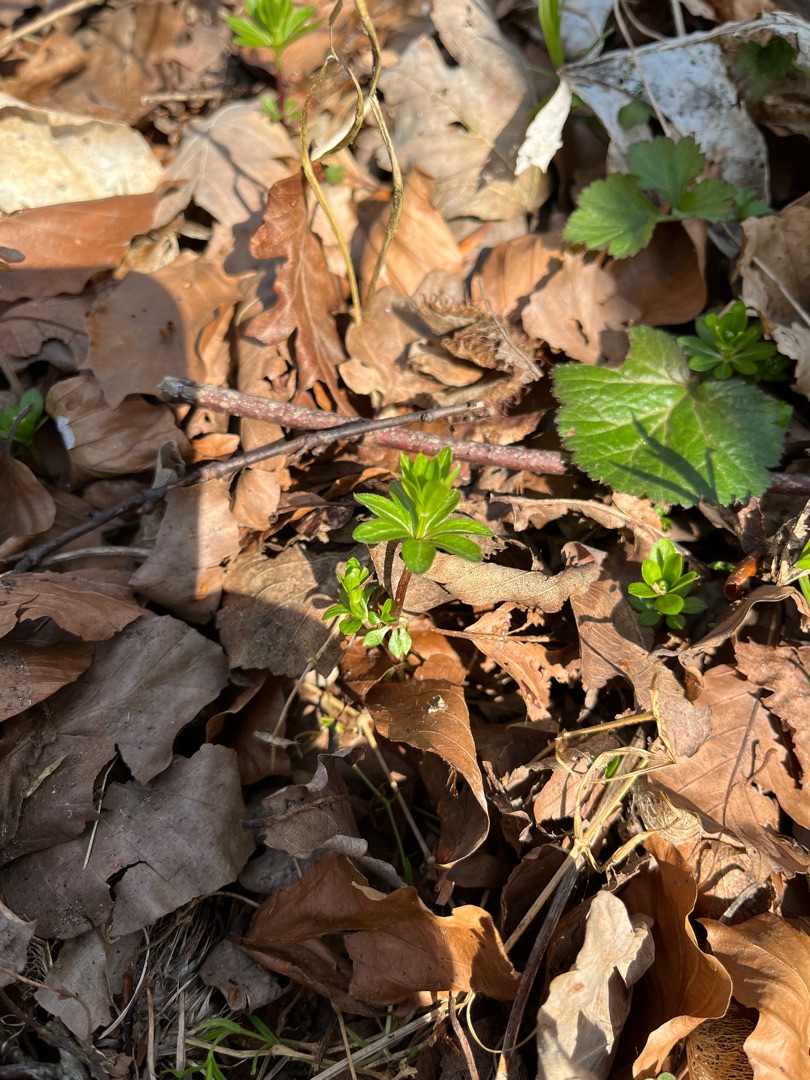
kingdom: Plantae
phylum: Tracheophyta
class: Magnoliopsida
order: Gentianales
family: Rubiaceae
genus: Galium
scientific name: Galium odoratum
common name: Skovmærke
